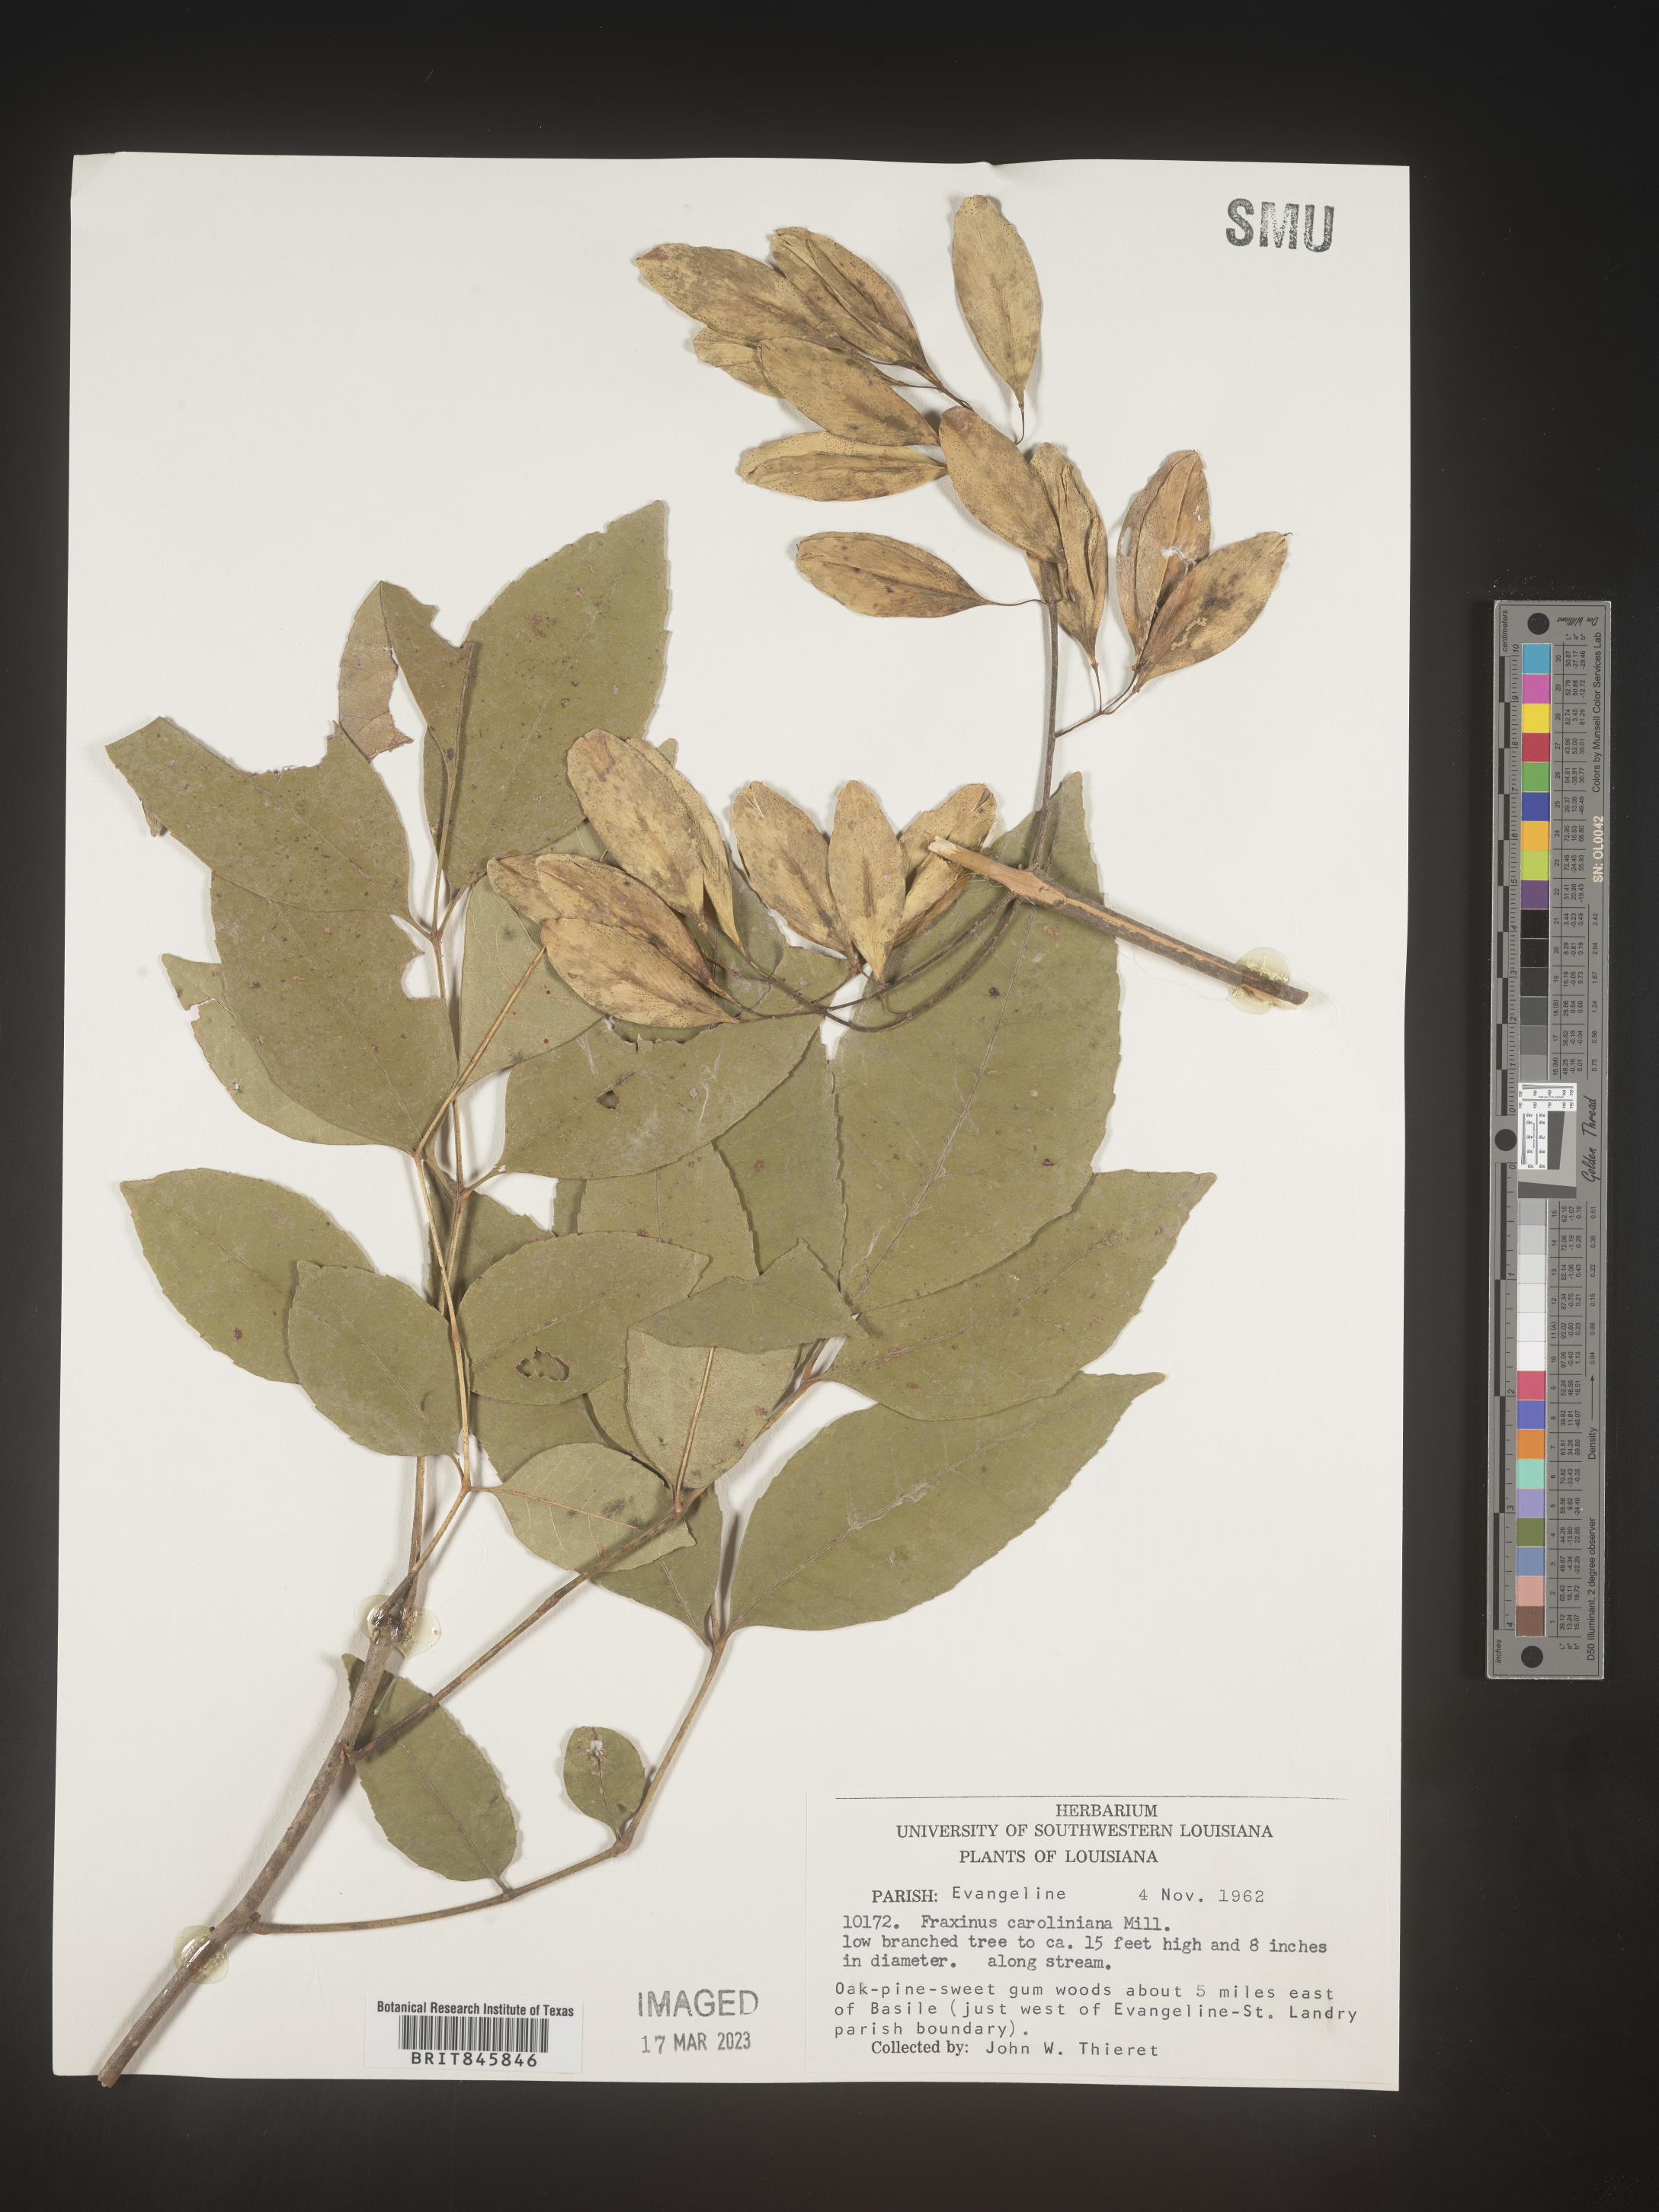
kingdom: Plantae
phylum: Tracheophyta
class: Magnoliopsida
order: Lamiales
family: Oleaceae
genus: Fraxinus
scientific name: Fraxinus caroliniana
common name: Carolina ash
